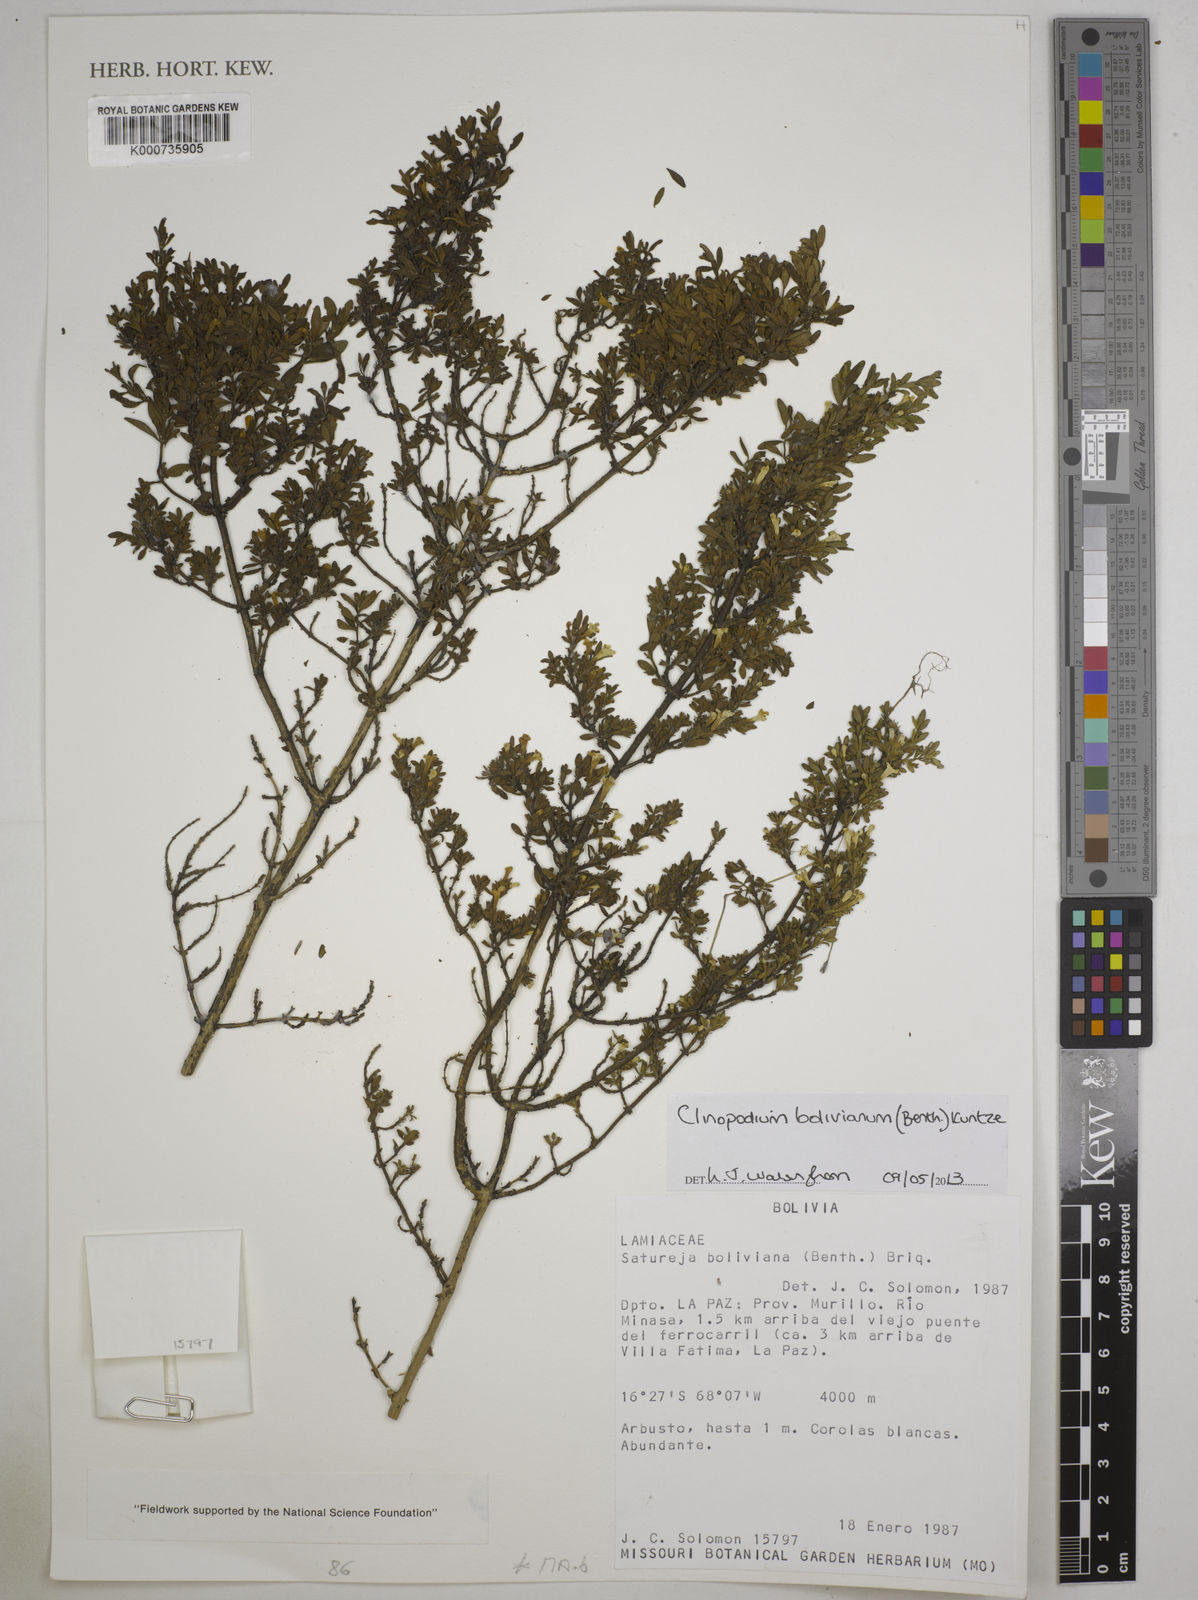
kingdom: Plantae
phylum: Tracheophyta
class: Magnoliopsida
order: Lamiales
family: Lamiaceae
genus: Clinopodium
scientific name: Clinopodium bolivianum
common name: Inca muña
